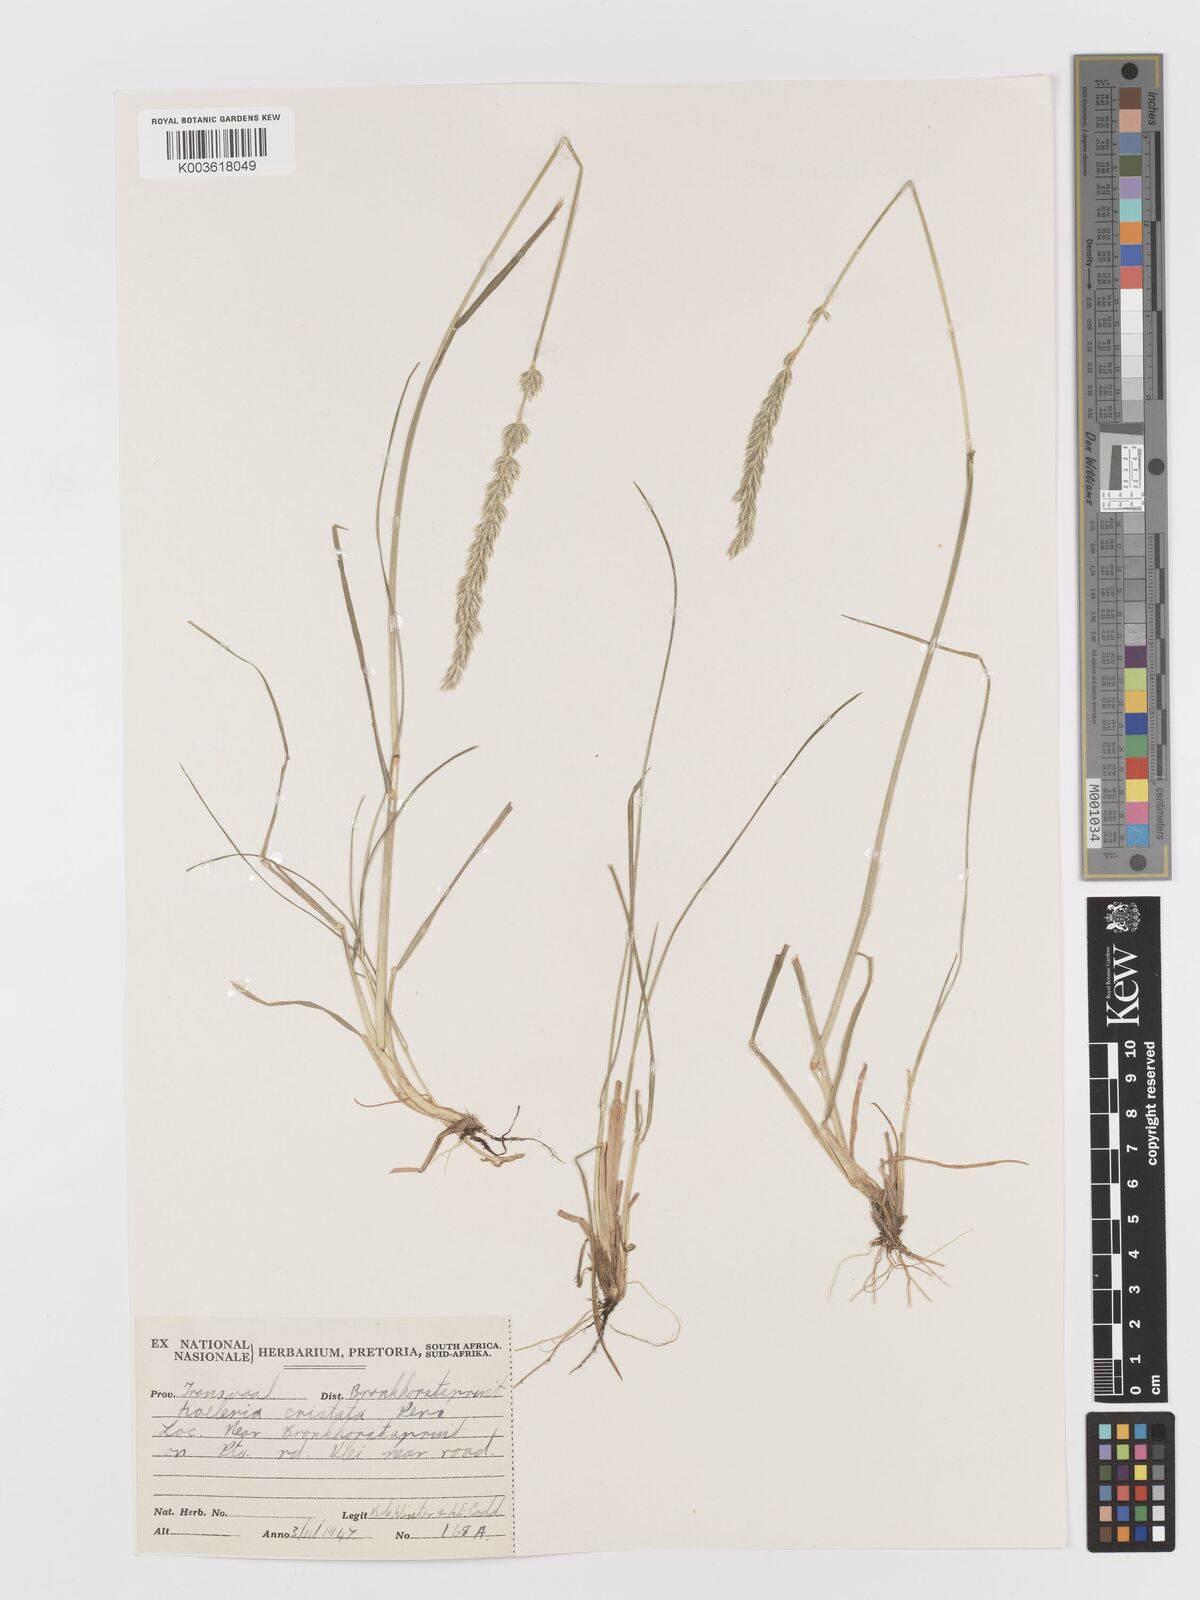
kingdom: Plantae
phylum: Tracheophyta
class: Liliopsida
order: Poales
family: Poaceae
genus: Koeleria
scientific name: Koeleria capensis
